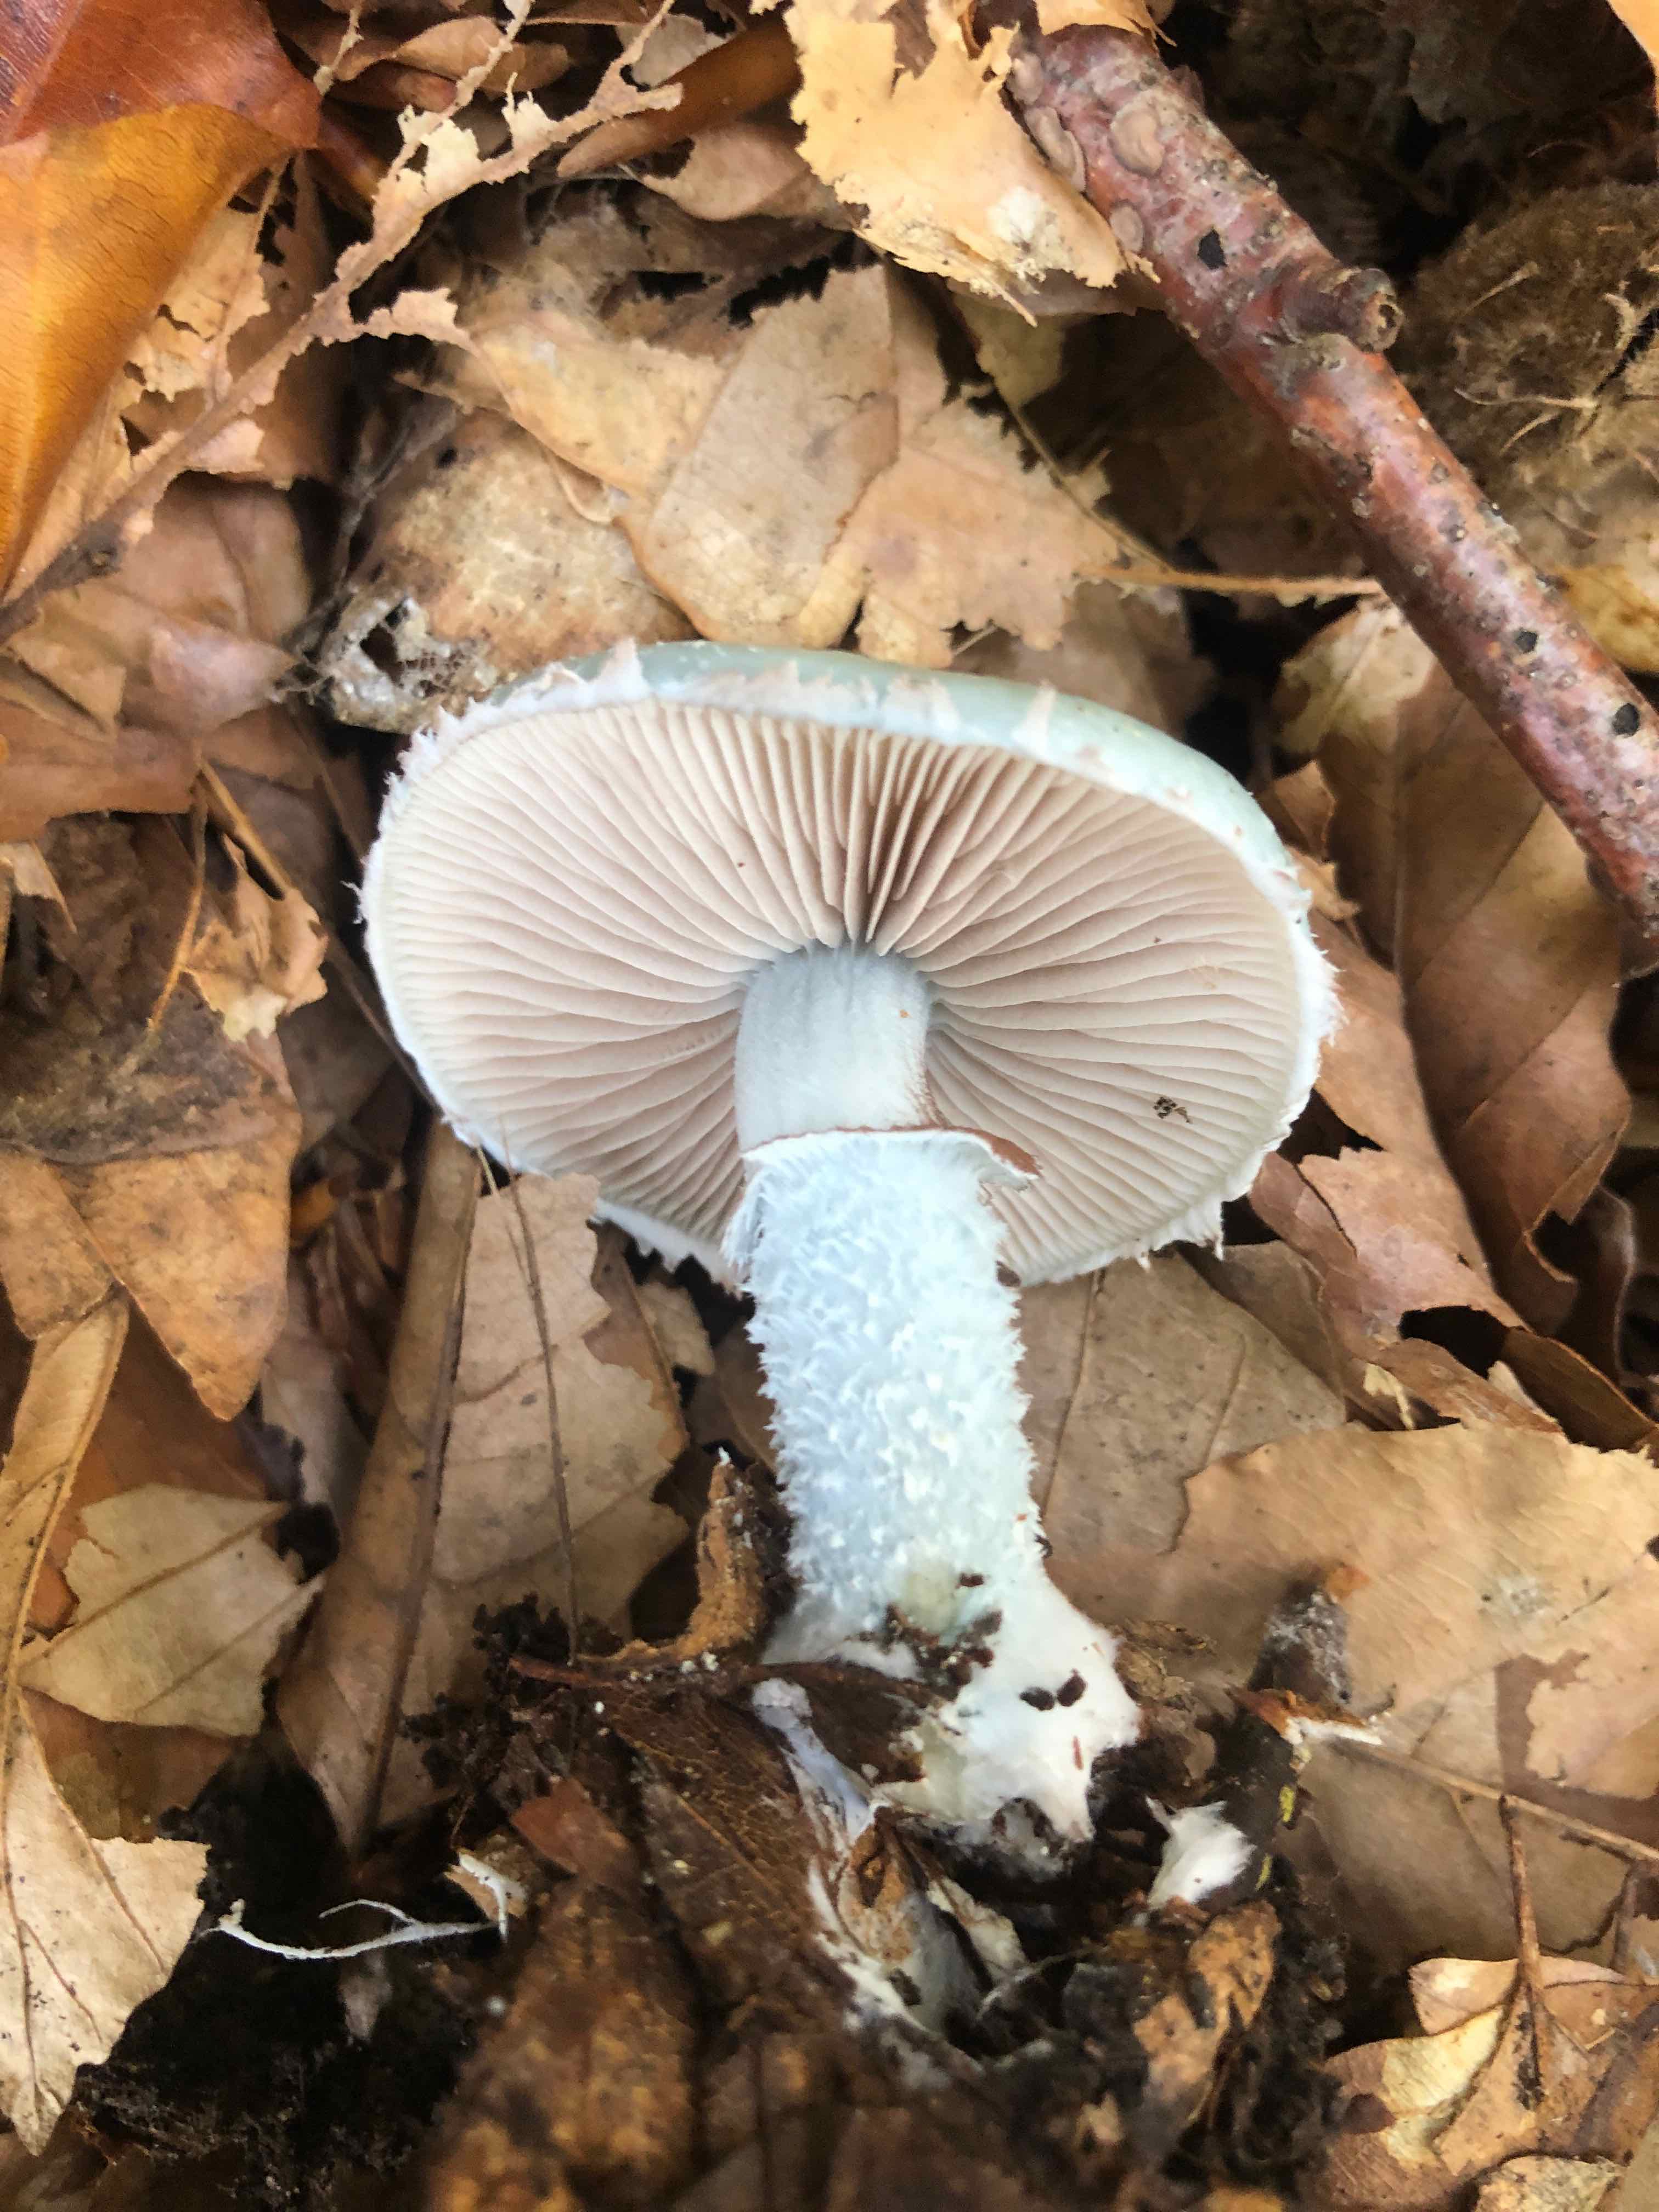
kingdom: Fungi
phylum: Basidiomycota
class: Agaricomycetes
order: Agaricales
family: Strophariaceae
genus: Stropharia
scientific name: Stropharia cyanea
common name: blågrøn bredblad
